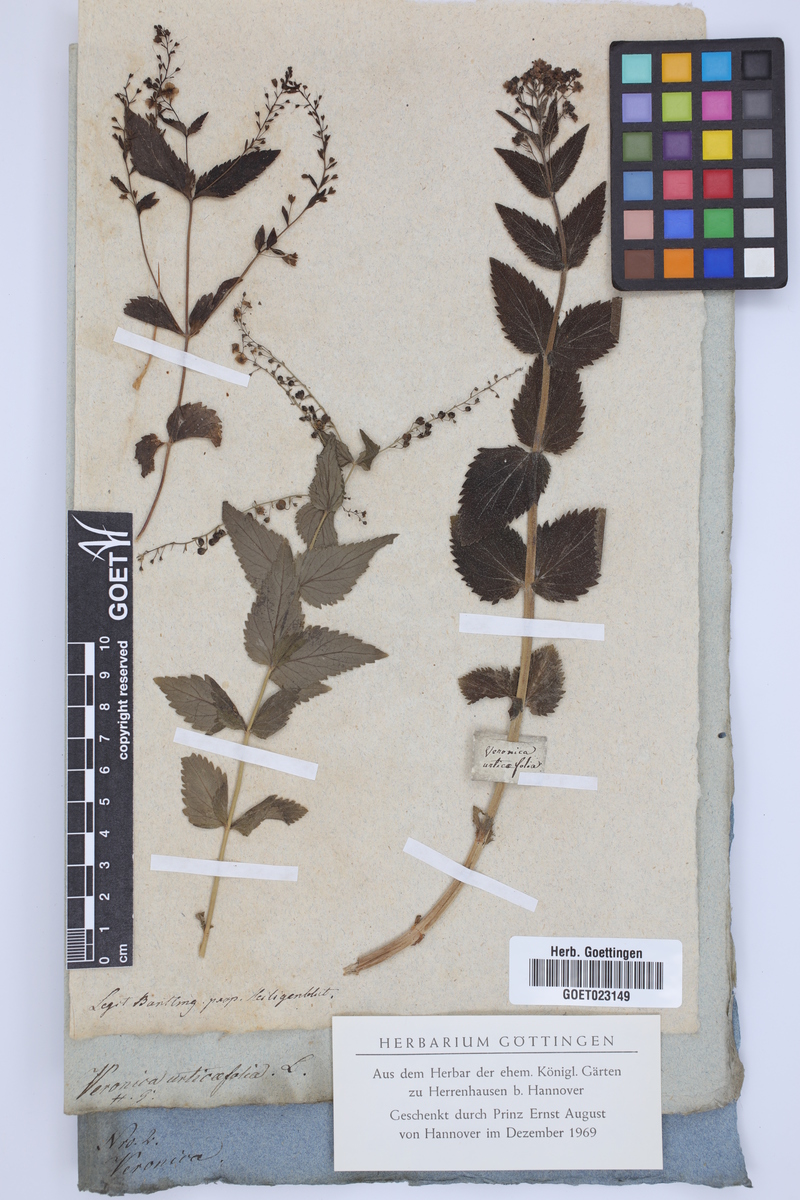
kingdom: Plantae
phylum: Tracheophyta
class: Magnoliopsida
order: Lamiales
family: Plantaginaceae
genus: Veronica
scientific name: Veronica urticifolia
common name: Nettle-leaf speedwell
